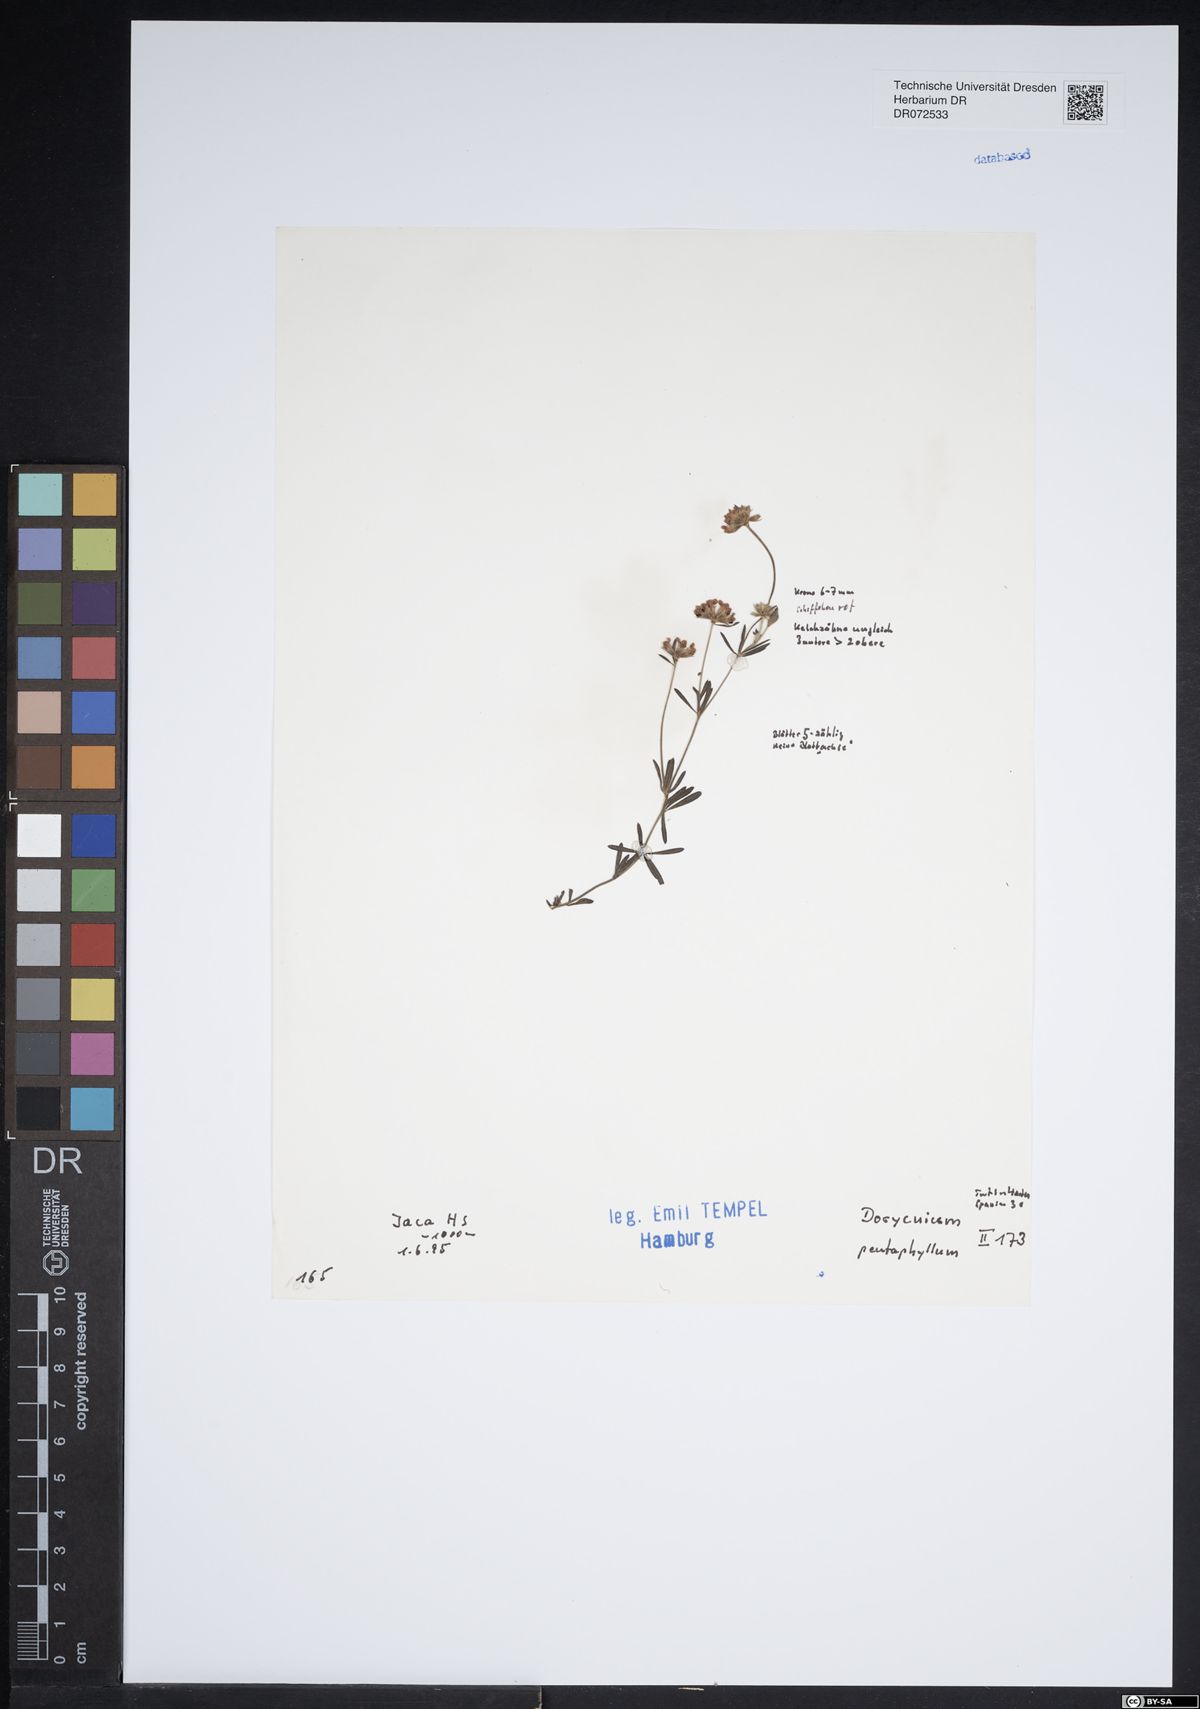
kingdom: Plantae
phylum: Tracheophyta
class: Magnoliopsida
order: Fabales
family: Fabaceae
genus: Lotus
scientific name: Lotus dorycnium
